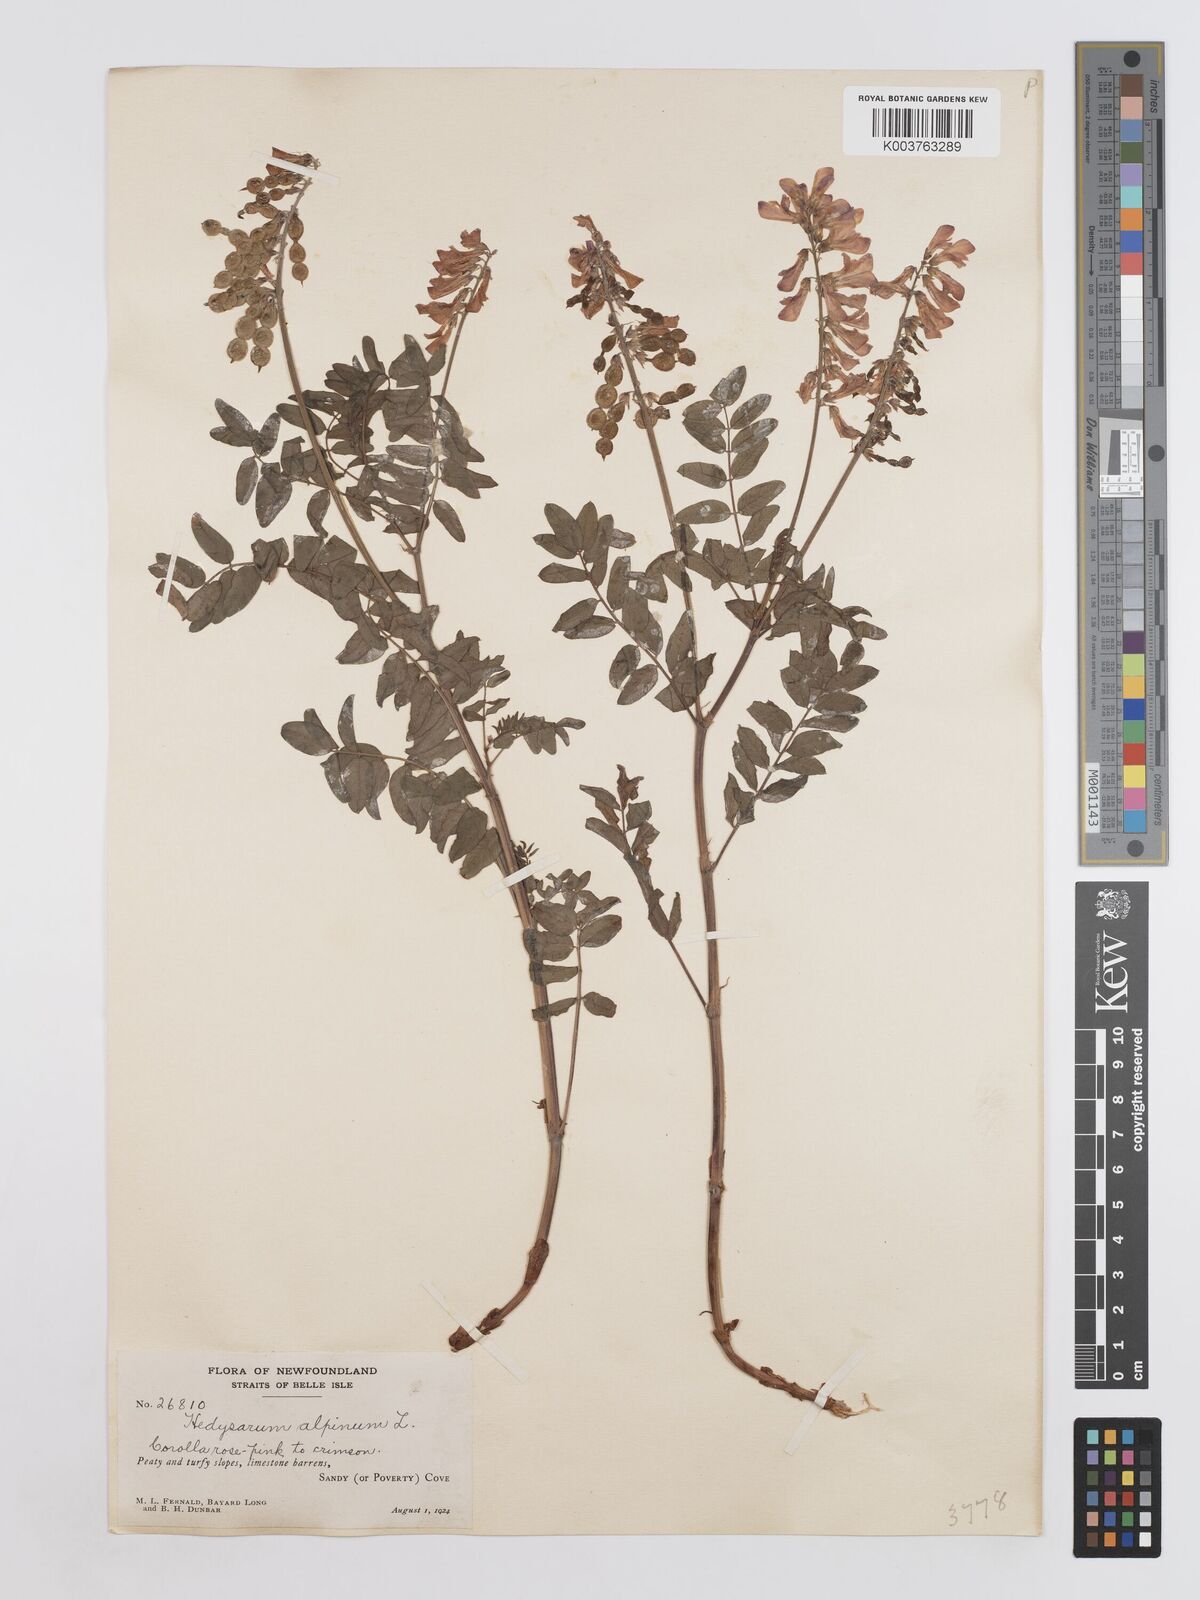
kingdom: Plantae
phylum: Tracheophyta
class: Magnoliopsida
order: Fabales
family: Fabaceae
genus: Hedysarum
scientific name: Hedysarum alpinum
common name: Alpine sweet-vetch
